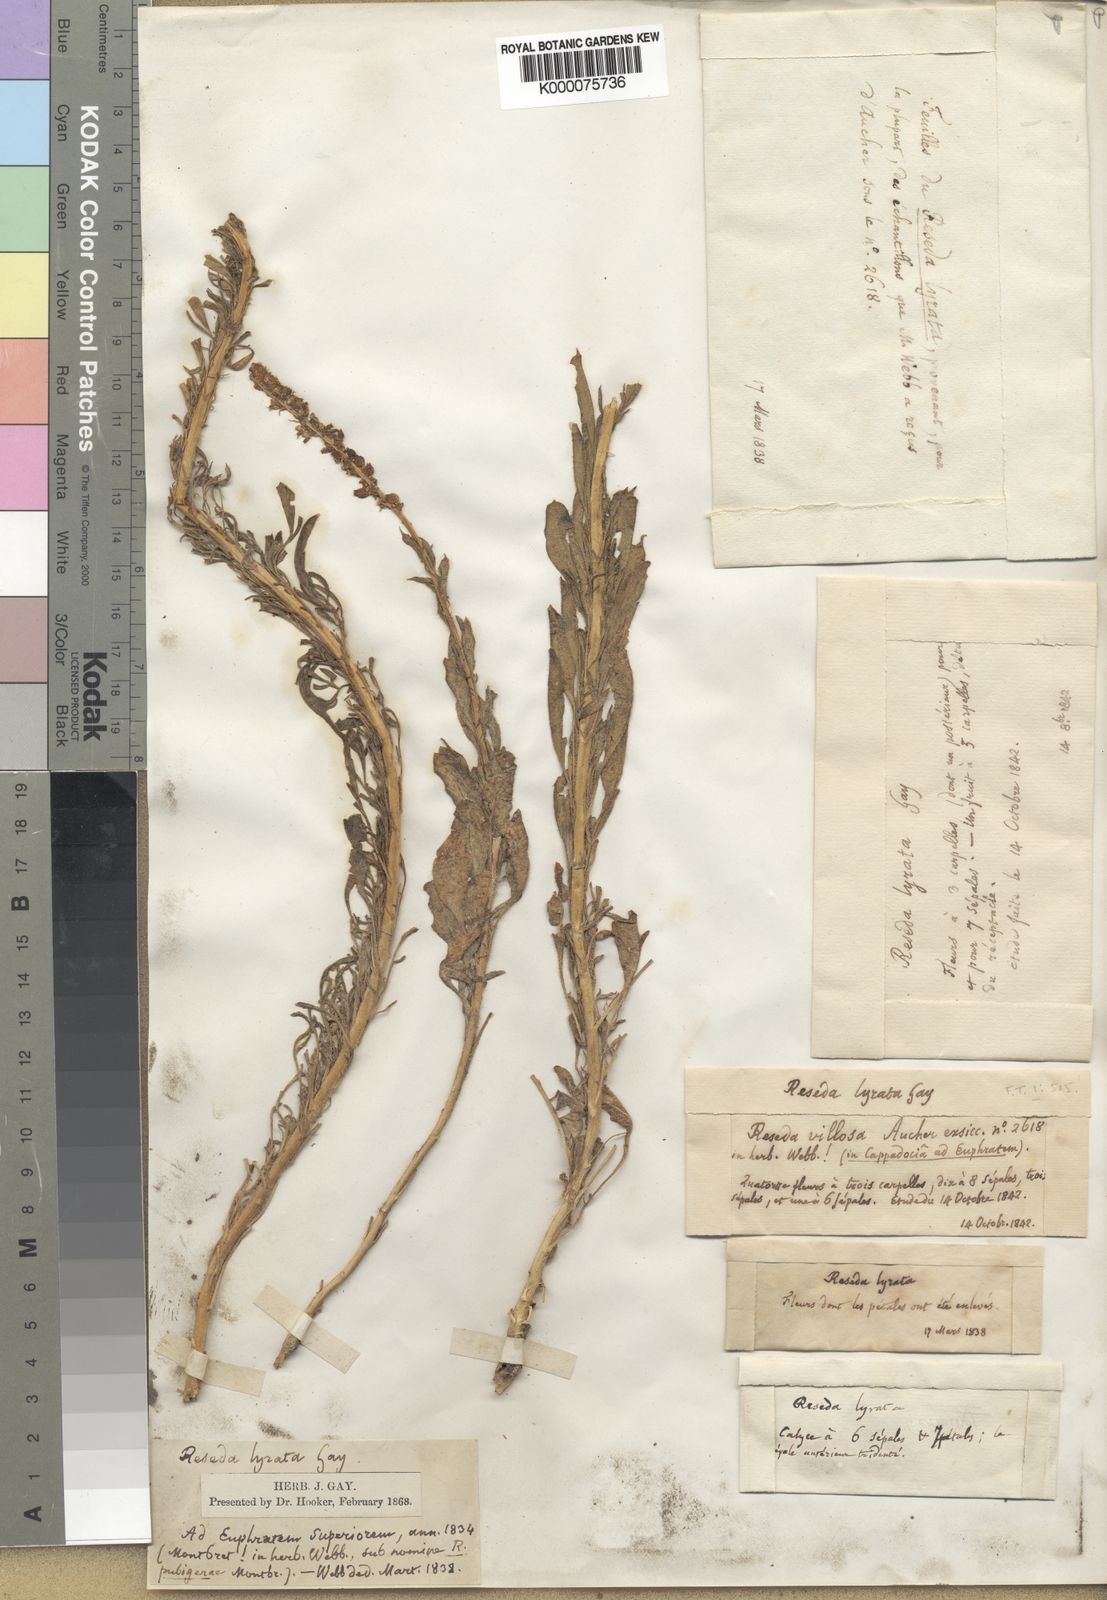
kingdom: Plantae
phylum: Tracheophyta
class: Magnoliopsida
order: Brassicales
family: Resedaceae
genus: Reseda
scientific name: Reseda
